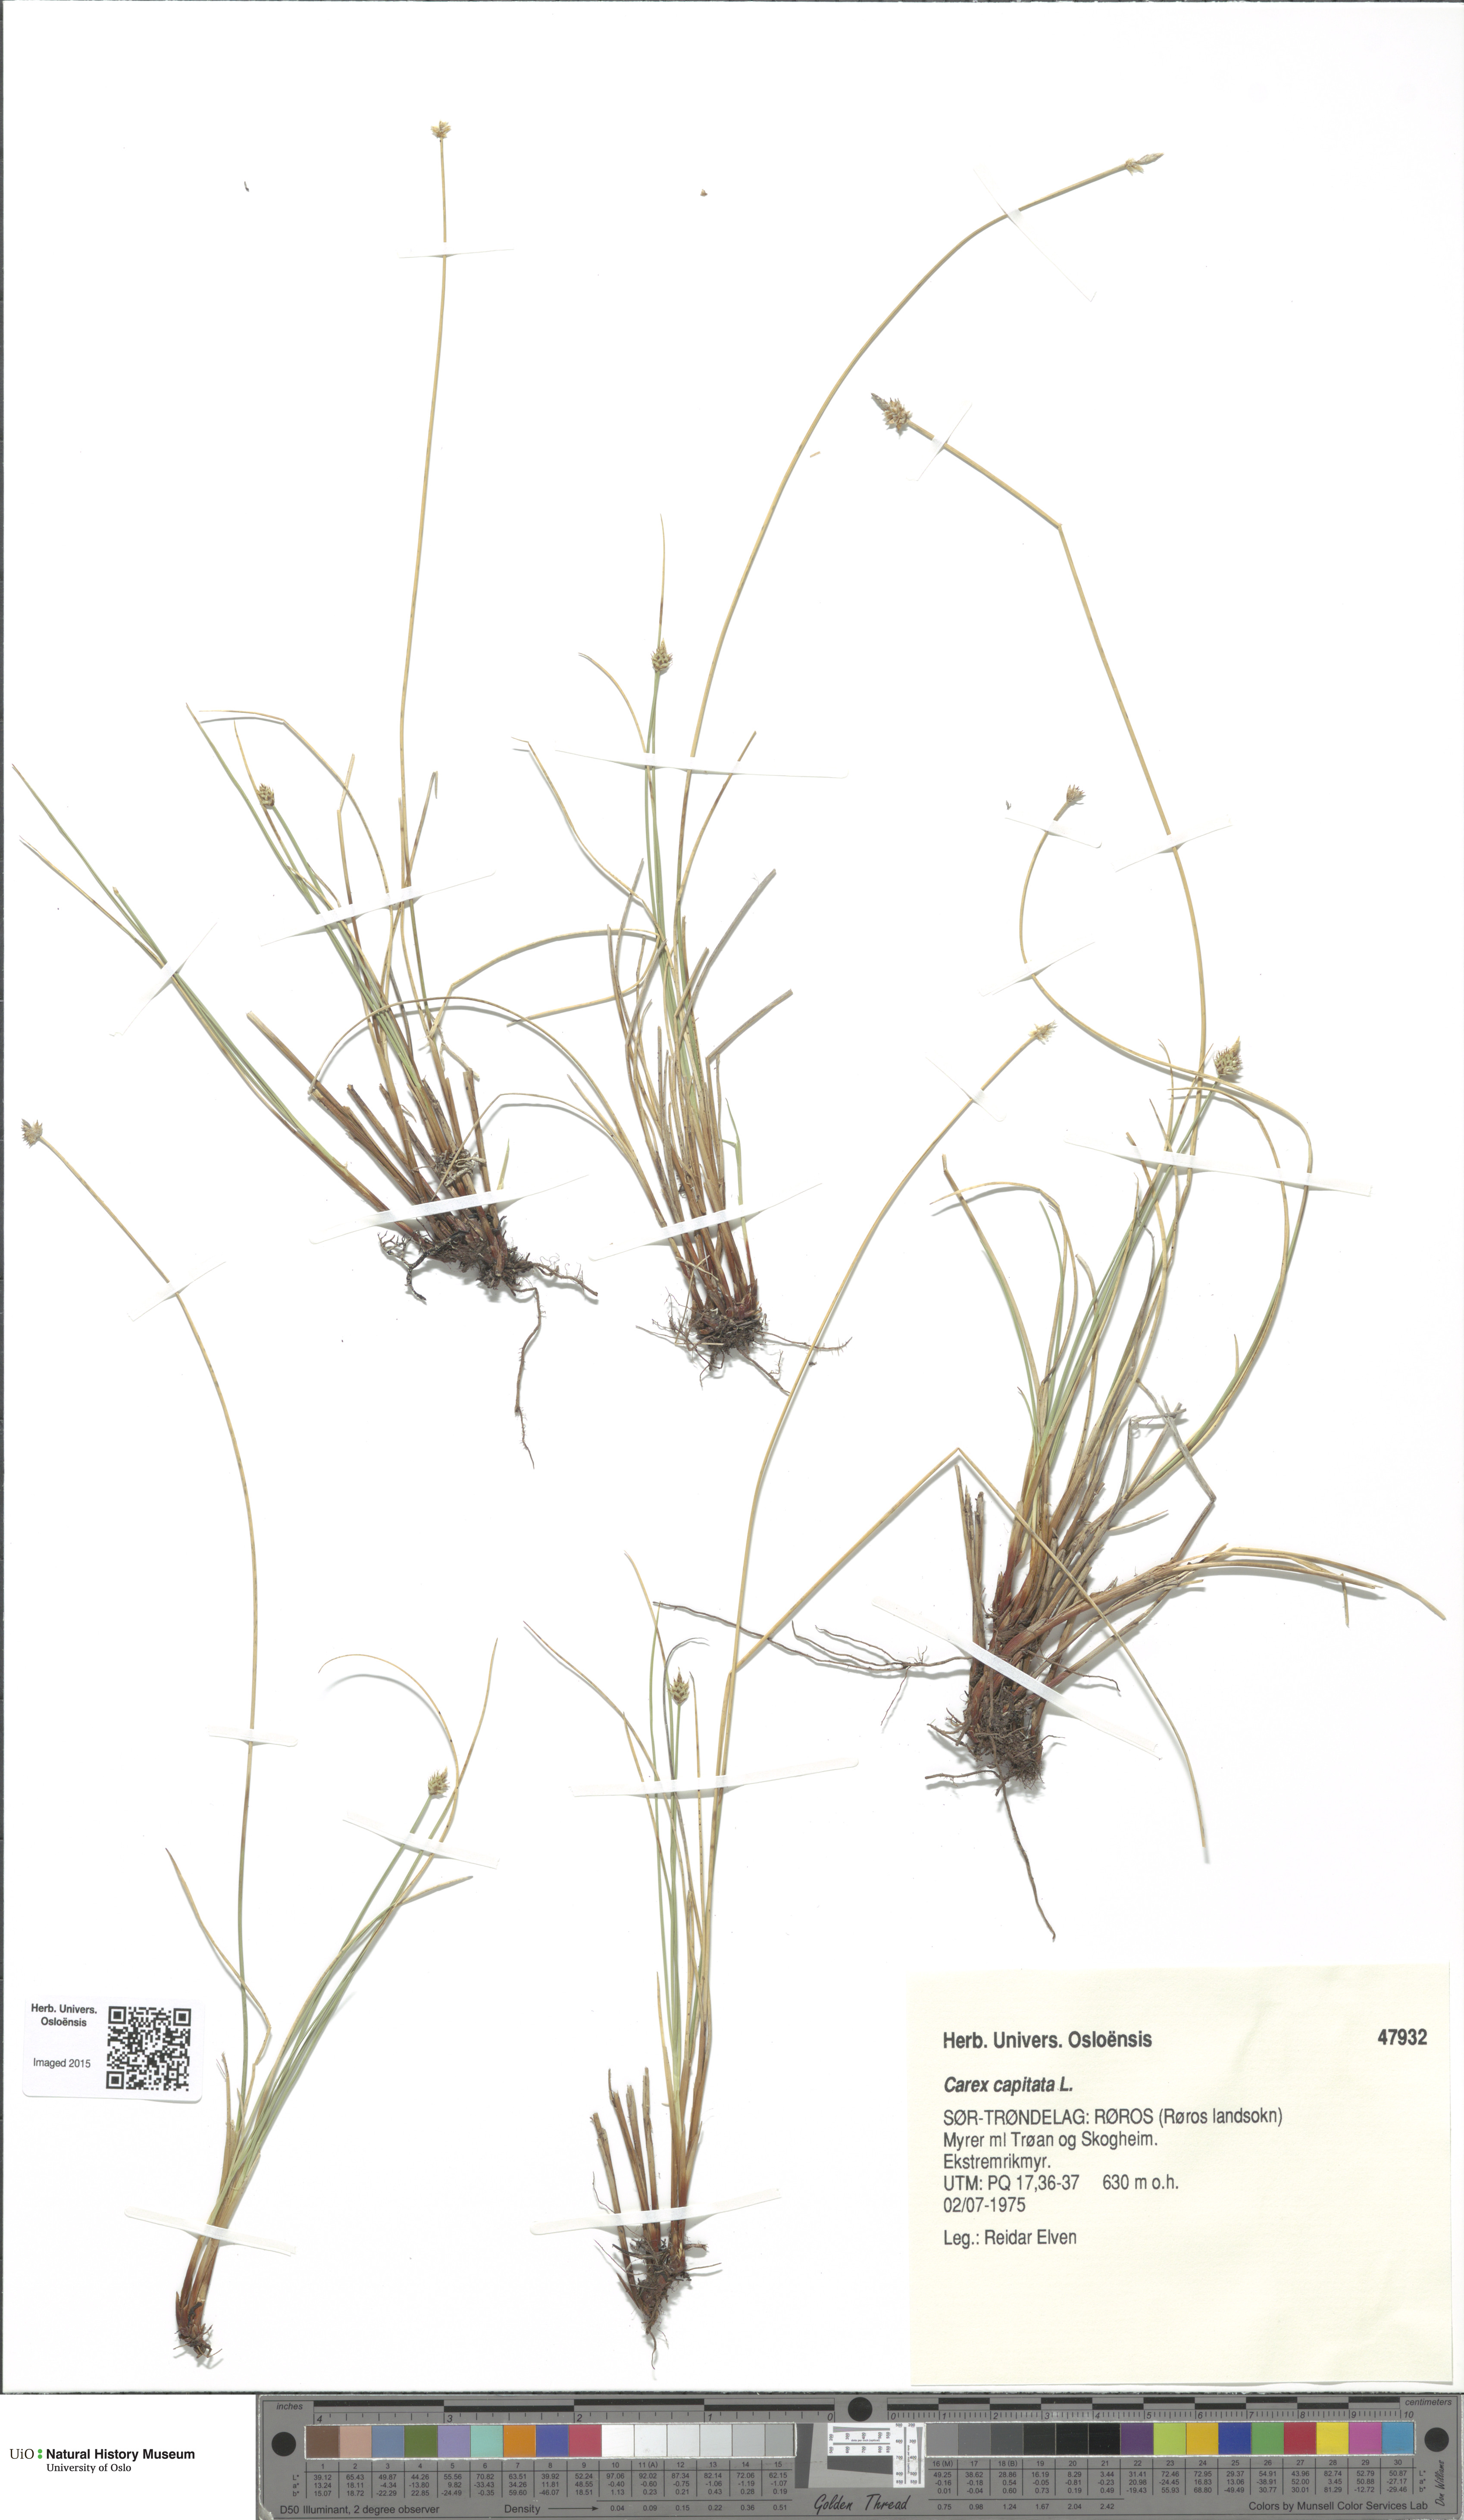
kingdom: Plantae
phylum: Tracheophyta
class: Liliopsida
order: Poales
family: Cyperaceae
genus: Carex
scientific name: Carex capitata
